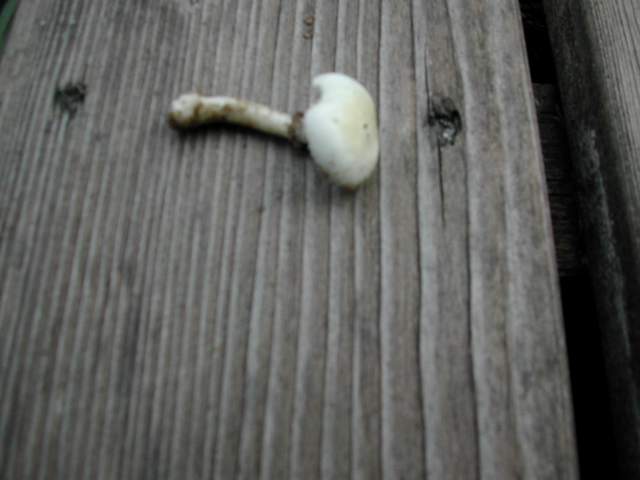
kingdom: Fungi
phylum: Basidiomycota
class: Agaricomycetes
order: Agaricales
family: Hymenogastraceae
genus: Psilocybe
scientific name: Psilocybe coronilla
